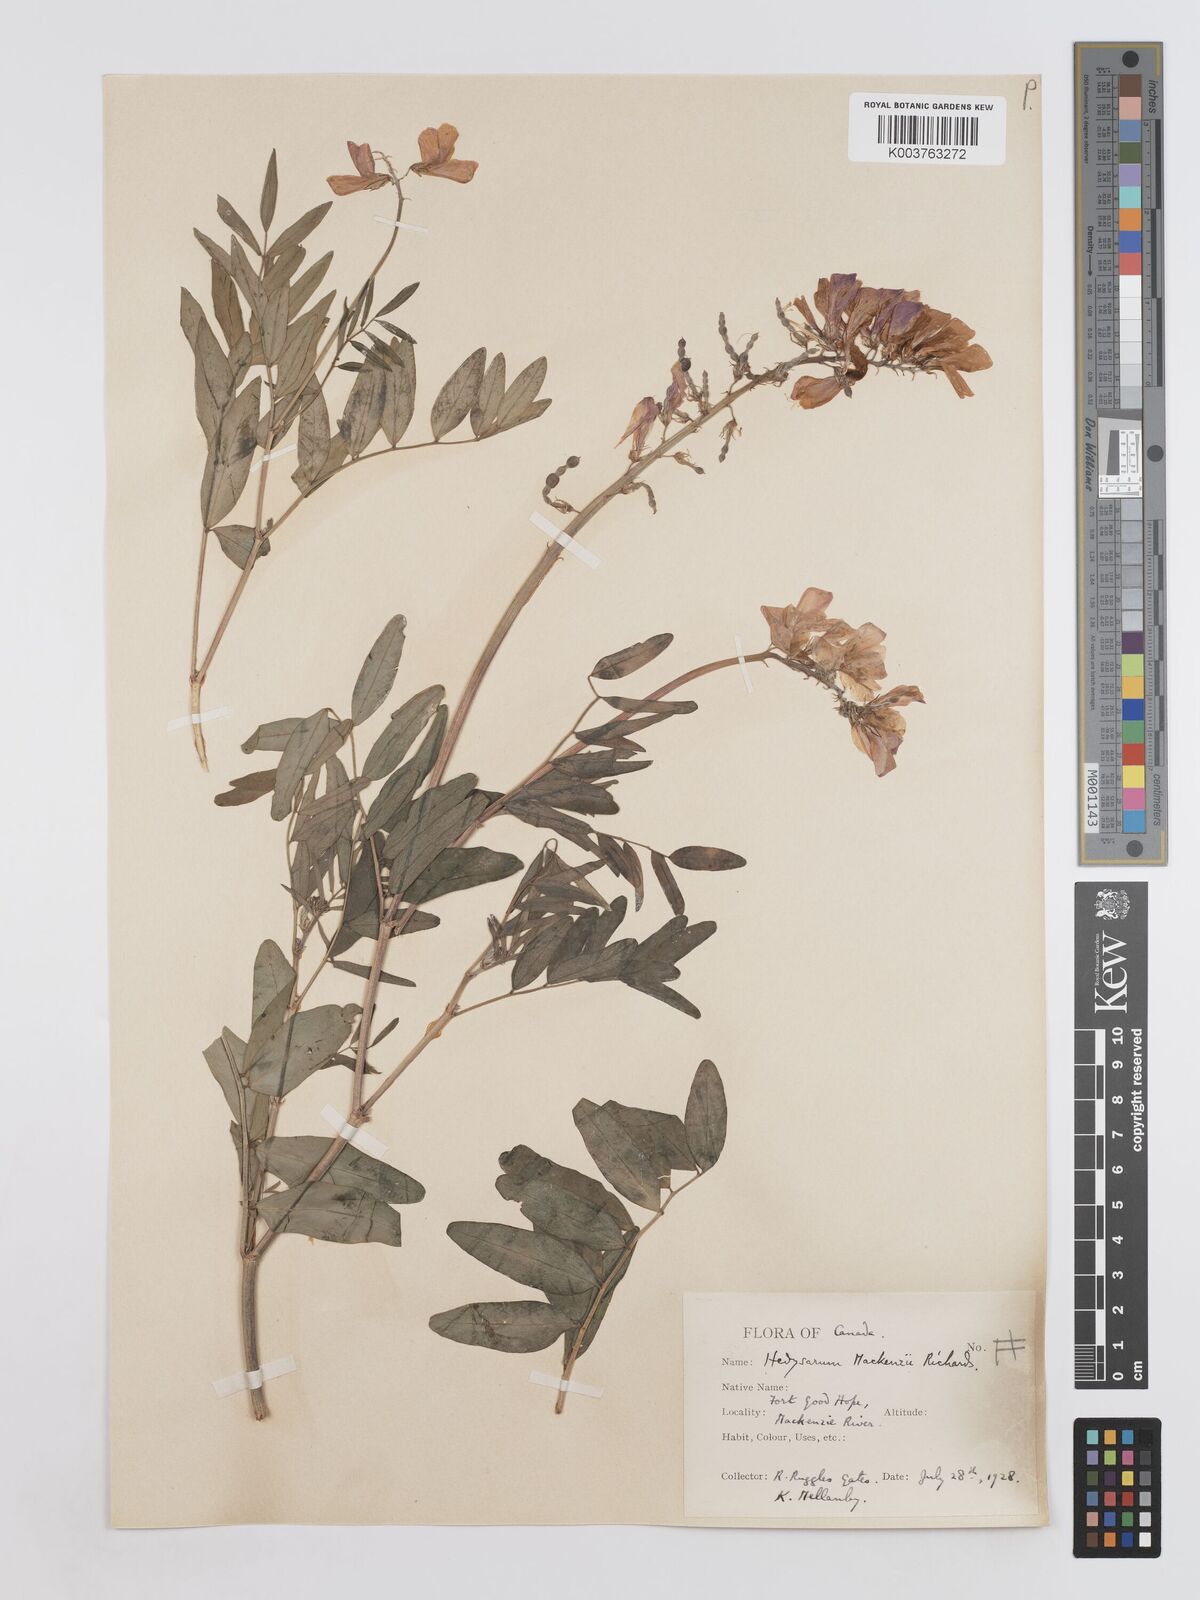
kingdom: Plantae
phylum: Tracheophyta
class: Magnoliopsida
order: Fabales
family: Fabaceae
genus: Hedysarum
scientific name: Hedysarum boreale
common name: Northern sweet-vetch
